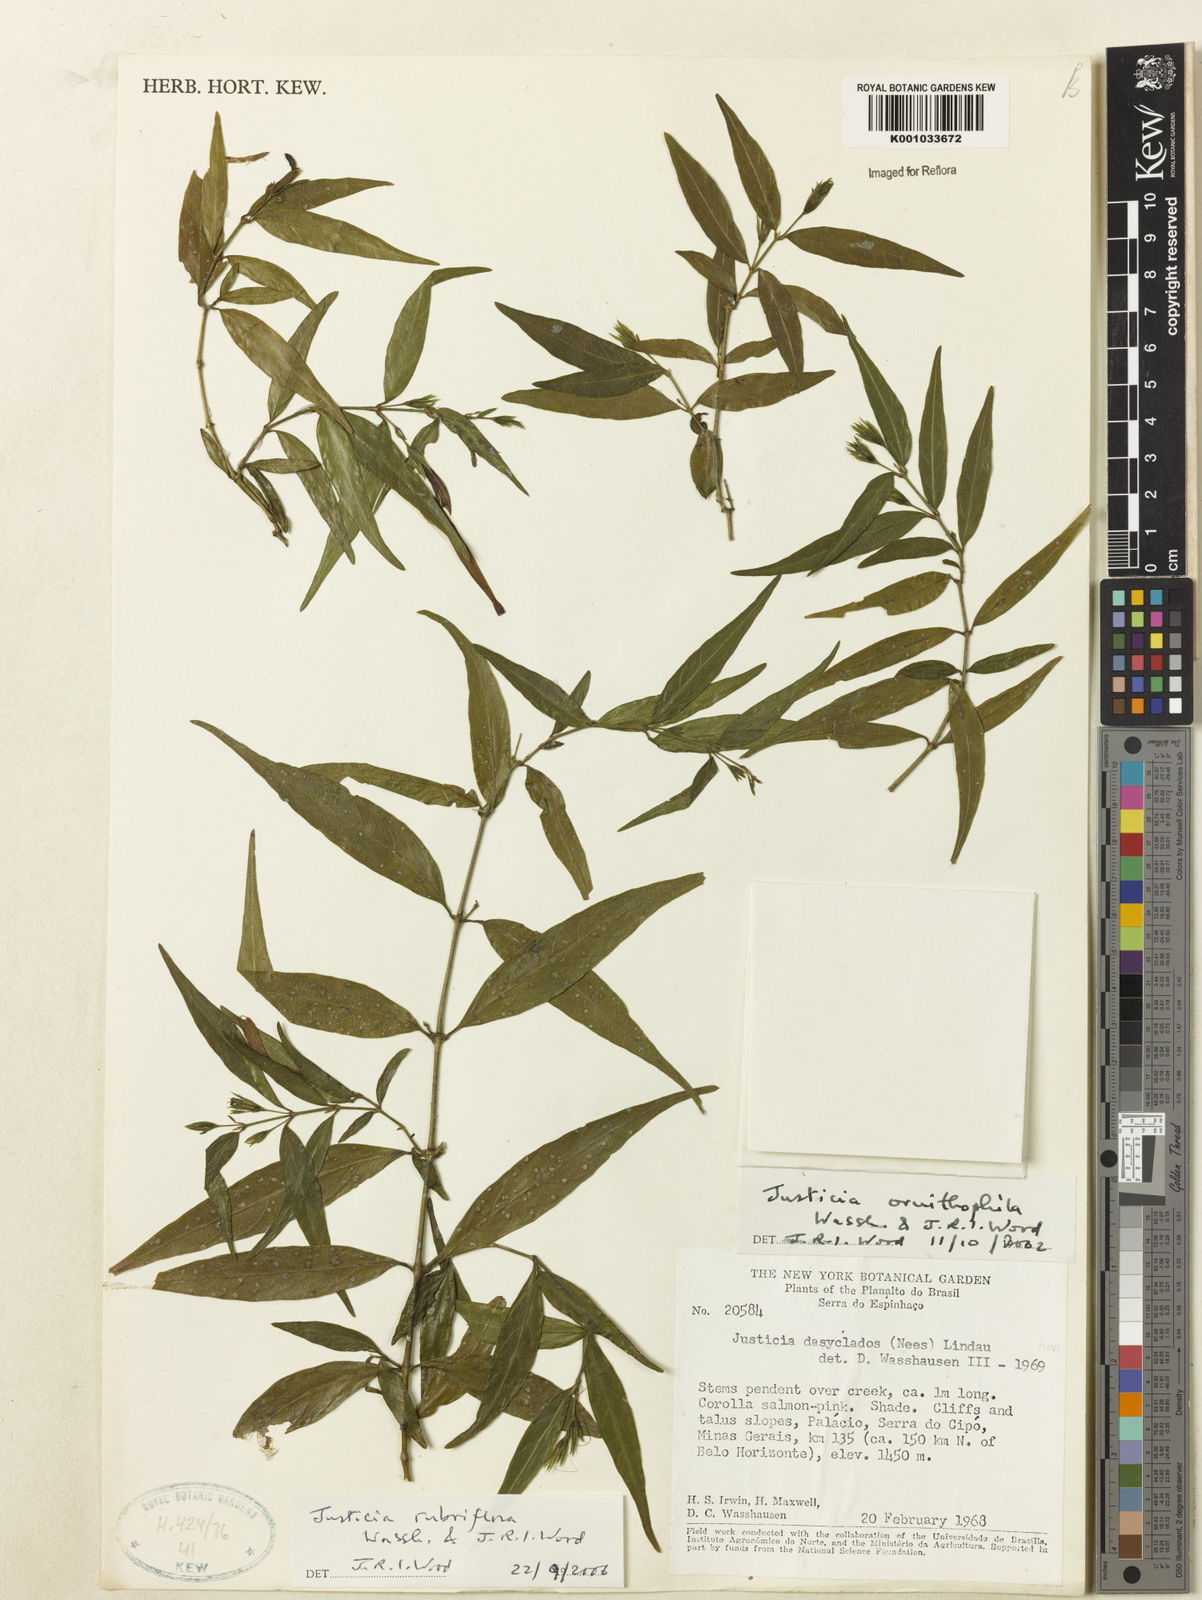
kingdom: Plantae
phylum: Tracheophyta
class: Magnoliopsida
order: Lamiales
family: Acanthaceae
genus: Justicia
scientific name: Justicia
